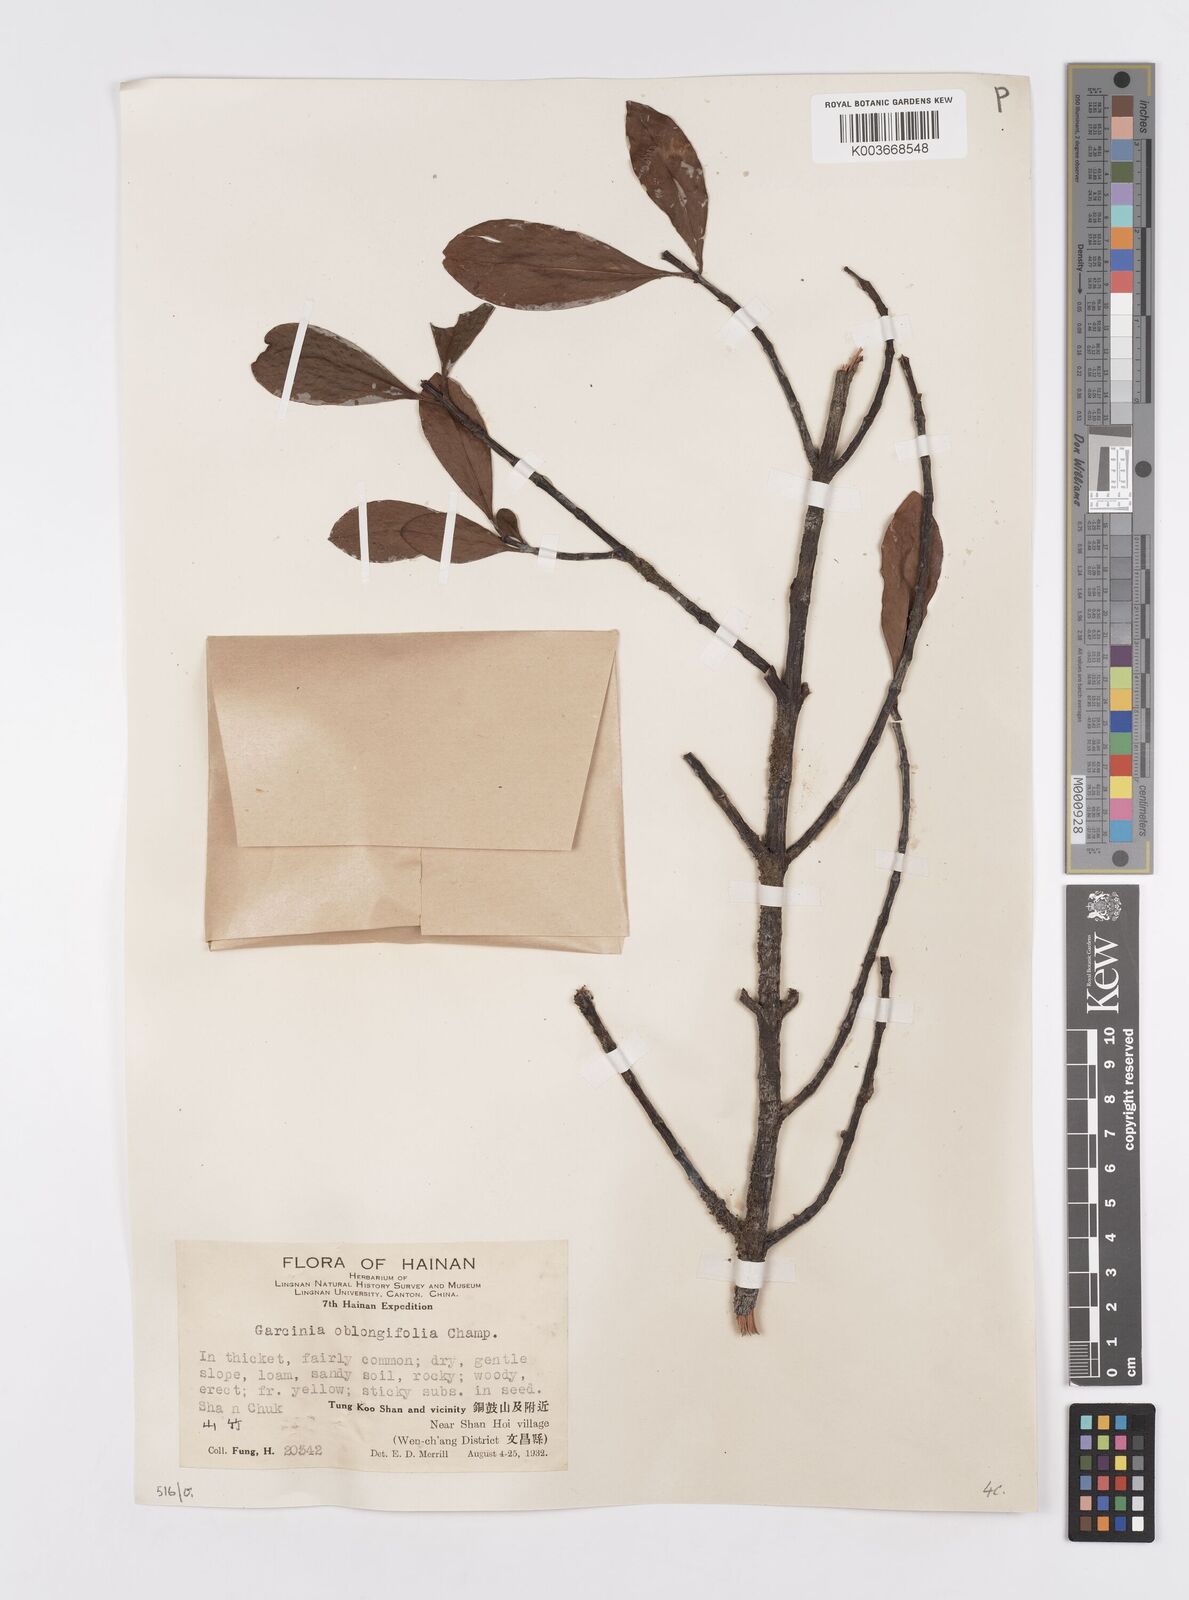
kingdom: Plantae
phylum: Tracheophyta
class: Magnoliopsida
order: Malpighiales
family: Clusiaceae
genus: Garcinia
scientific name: Garcinia oblongifolia
